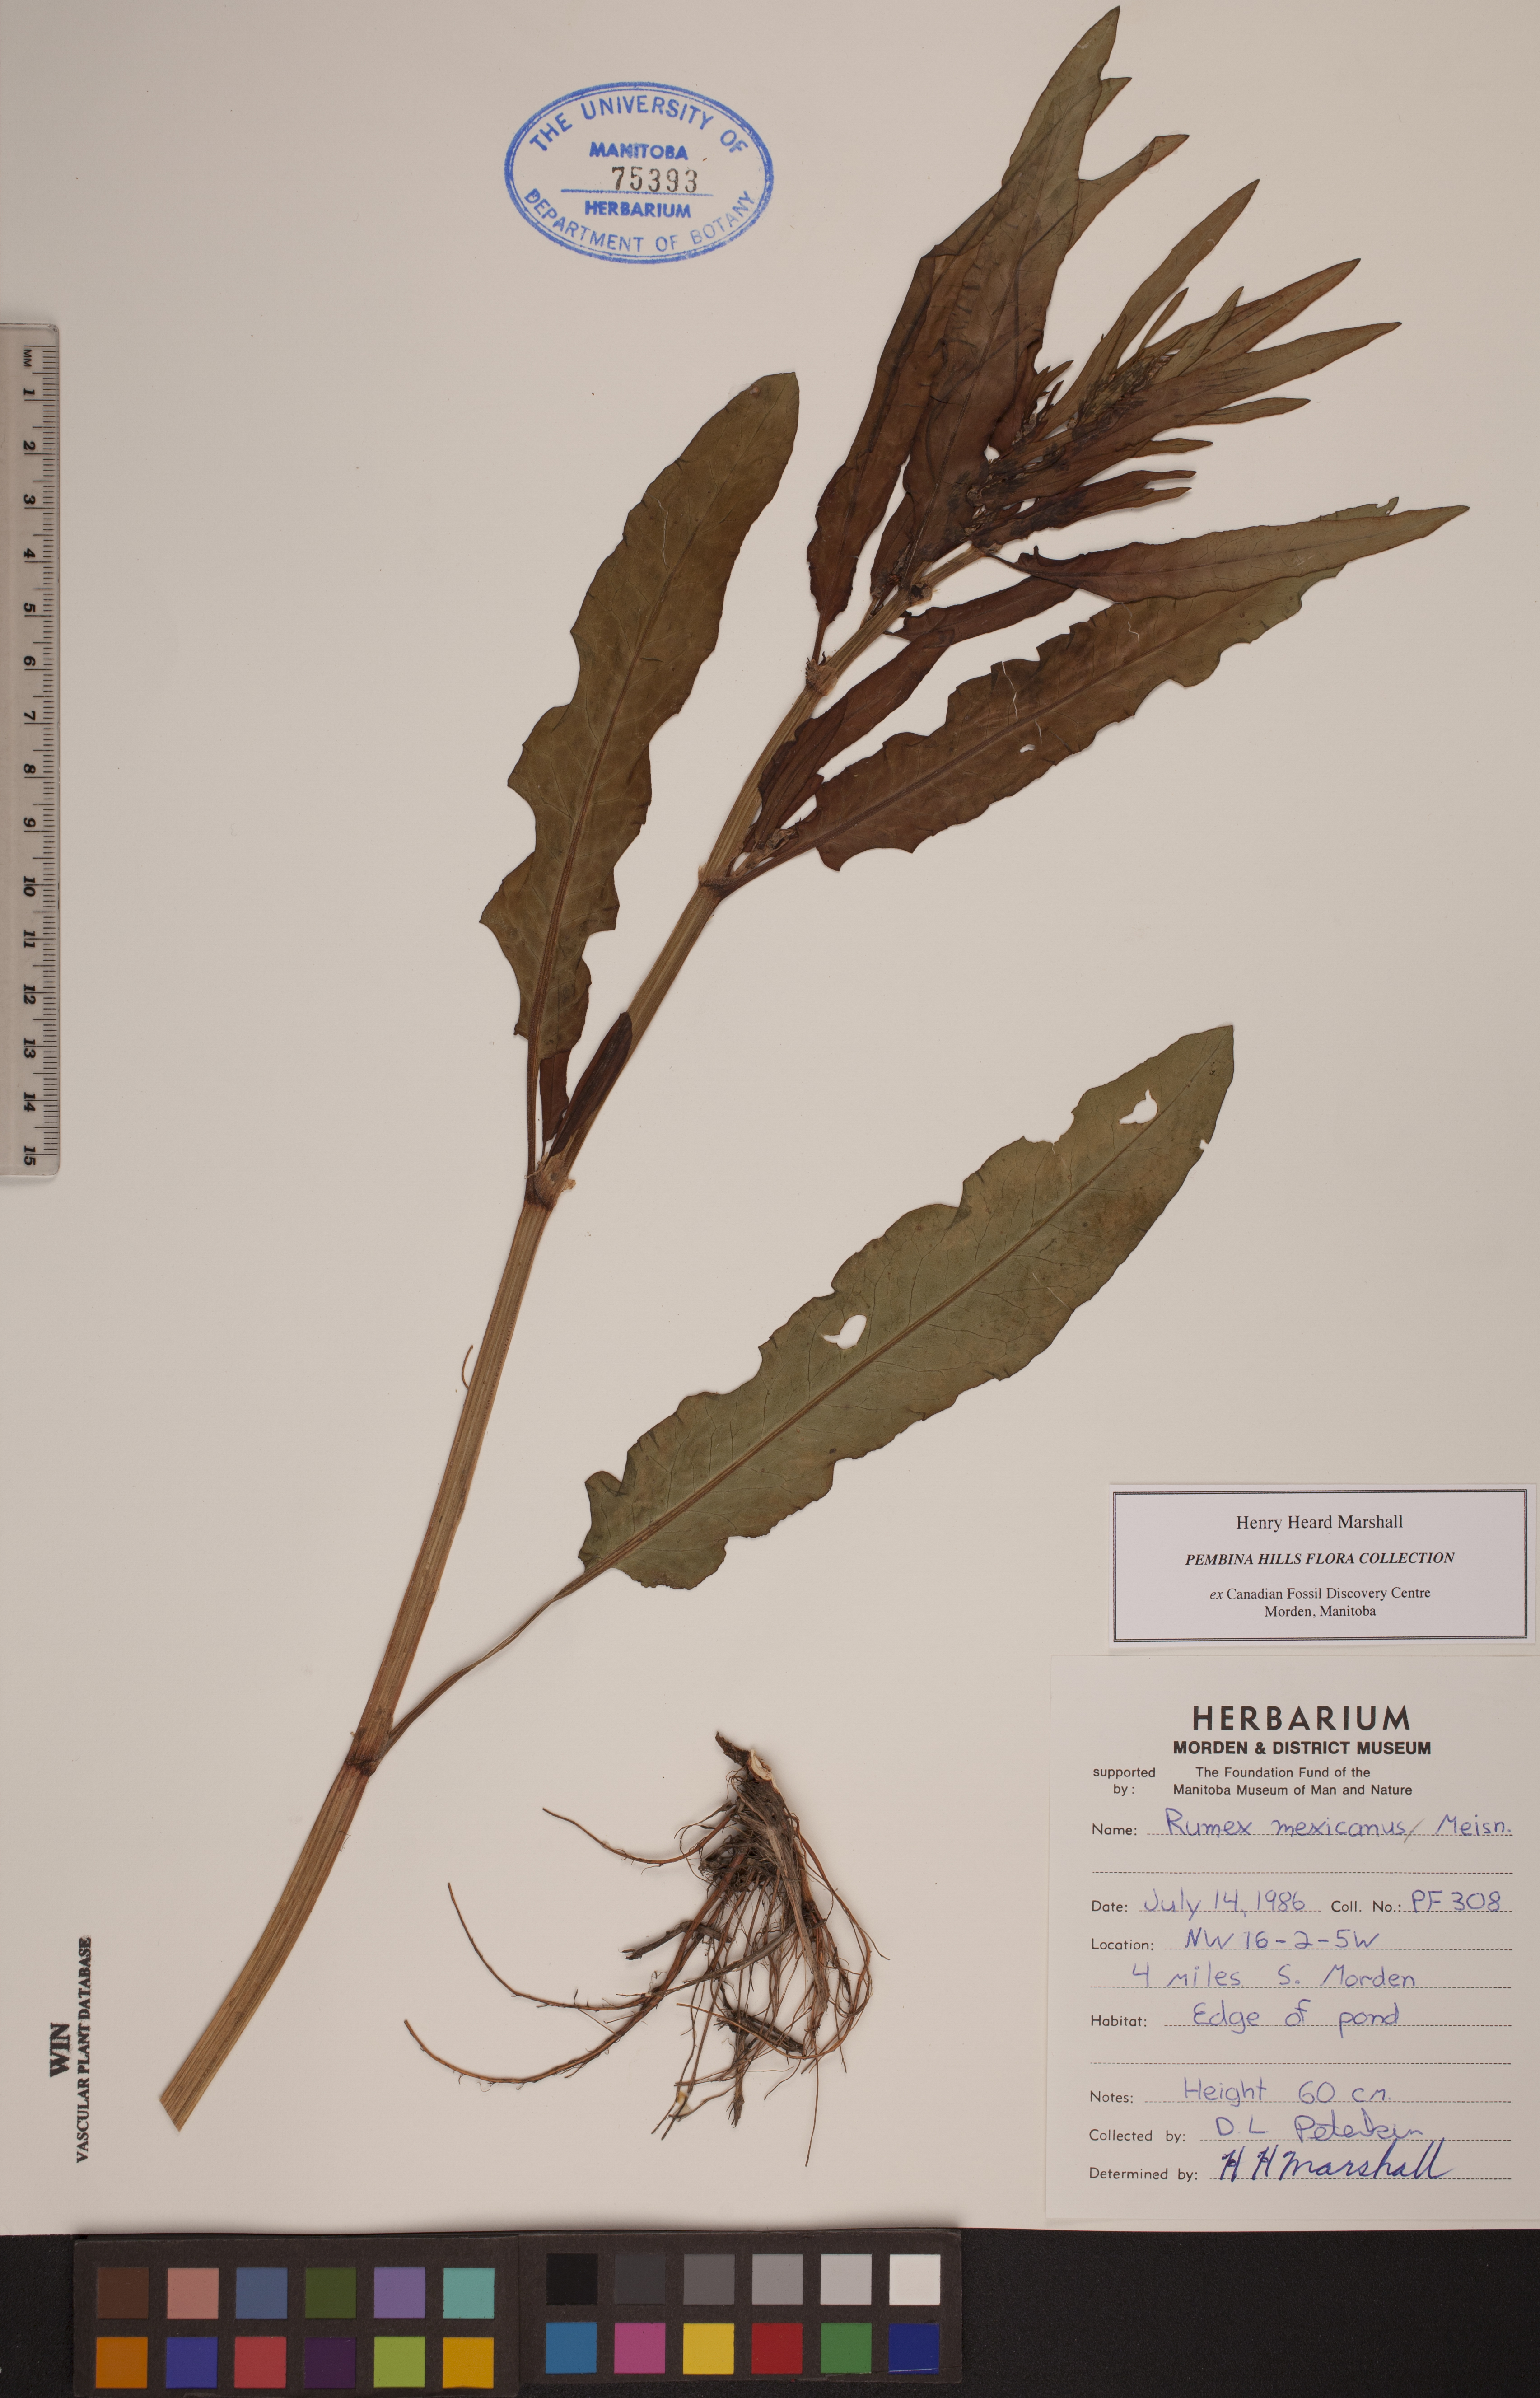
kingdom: Plantae
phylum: Tracheophyta
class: Magnoliopsida
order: Caryophyllales
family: Polygonaceae
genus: Rumex
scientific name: Rumex triangulivalvis
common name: Triangular-valve dock
